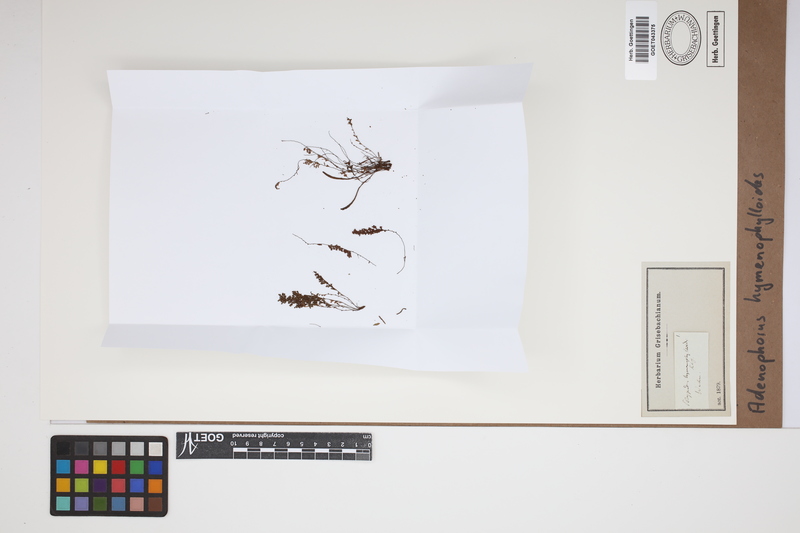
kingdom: Plantae
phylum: Tracheophyta
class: Polypodiopsida
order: Polypodiales
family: Polypodiaceae
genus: Adenophorus
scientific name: Adenophorus hymenophylloides
